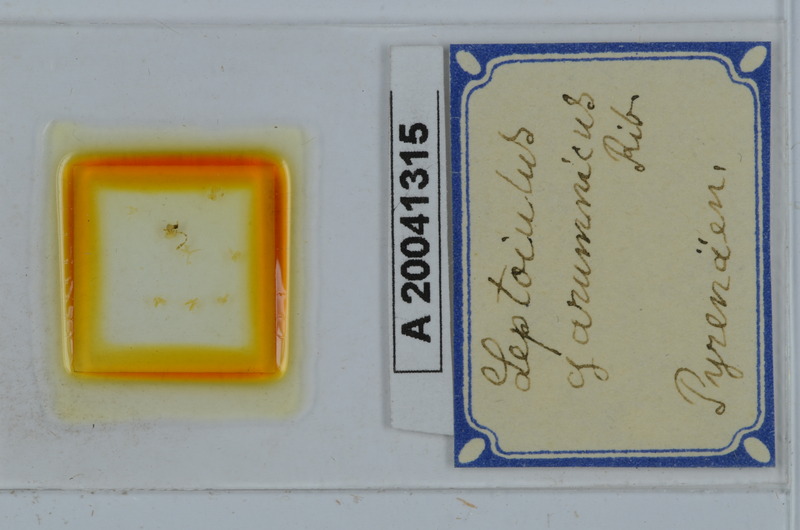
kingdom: Animalia
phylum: Arthropoda
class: Diplopoda
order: Julida
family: Julidae
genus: Leptoiulus
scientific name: Leptoiulus garumnicus
